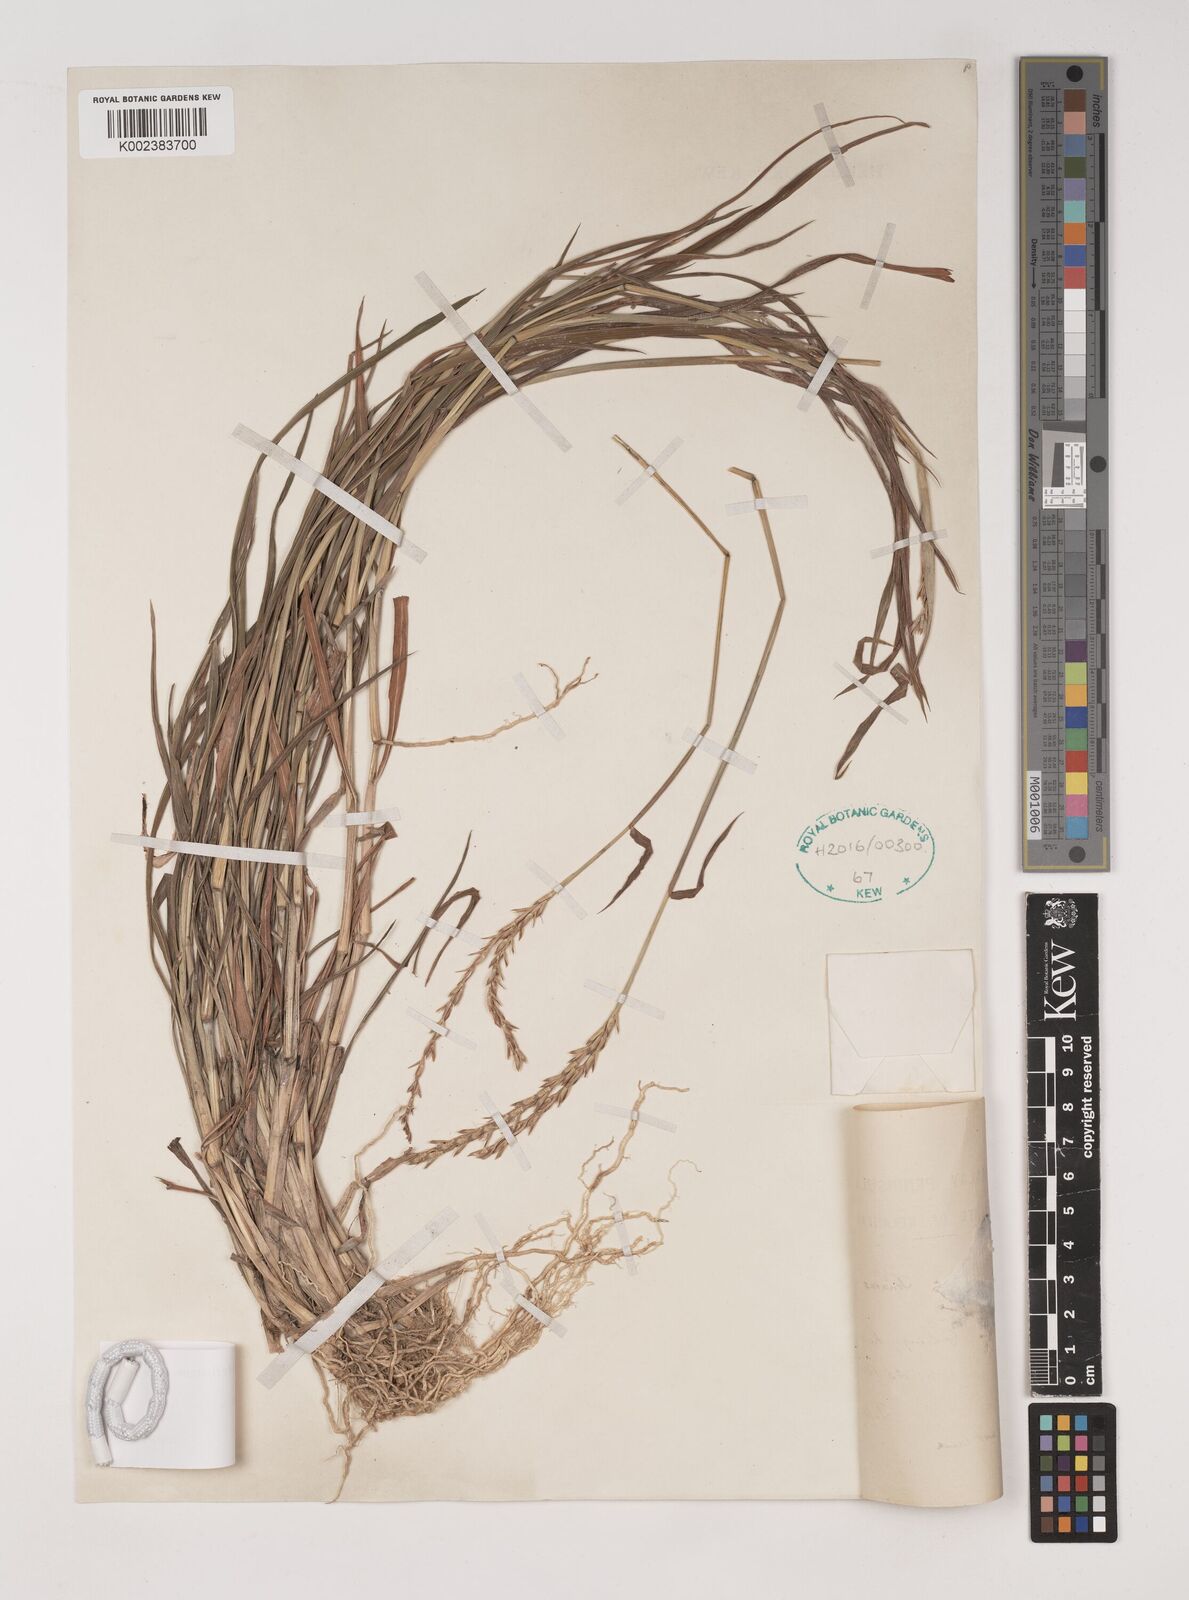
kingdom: Plantae
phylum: Tracheophyta
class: Liliopsida
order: Poales
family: Poaceae
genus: Ischaemum
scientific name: Ischaemum barbatum
